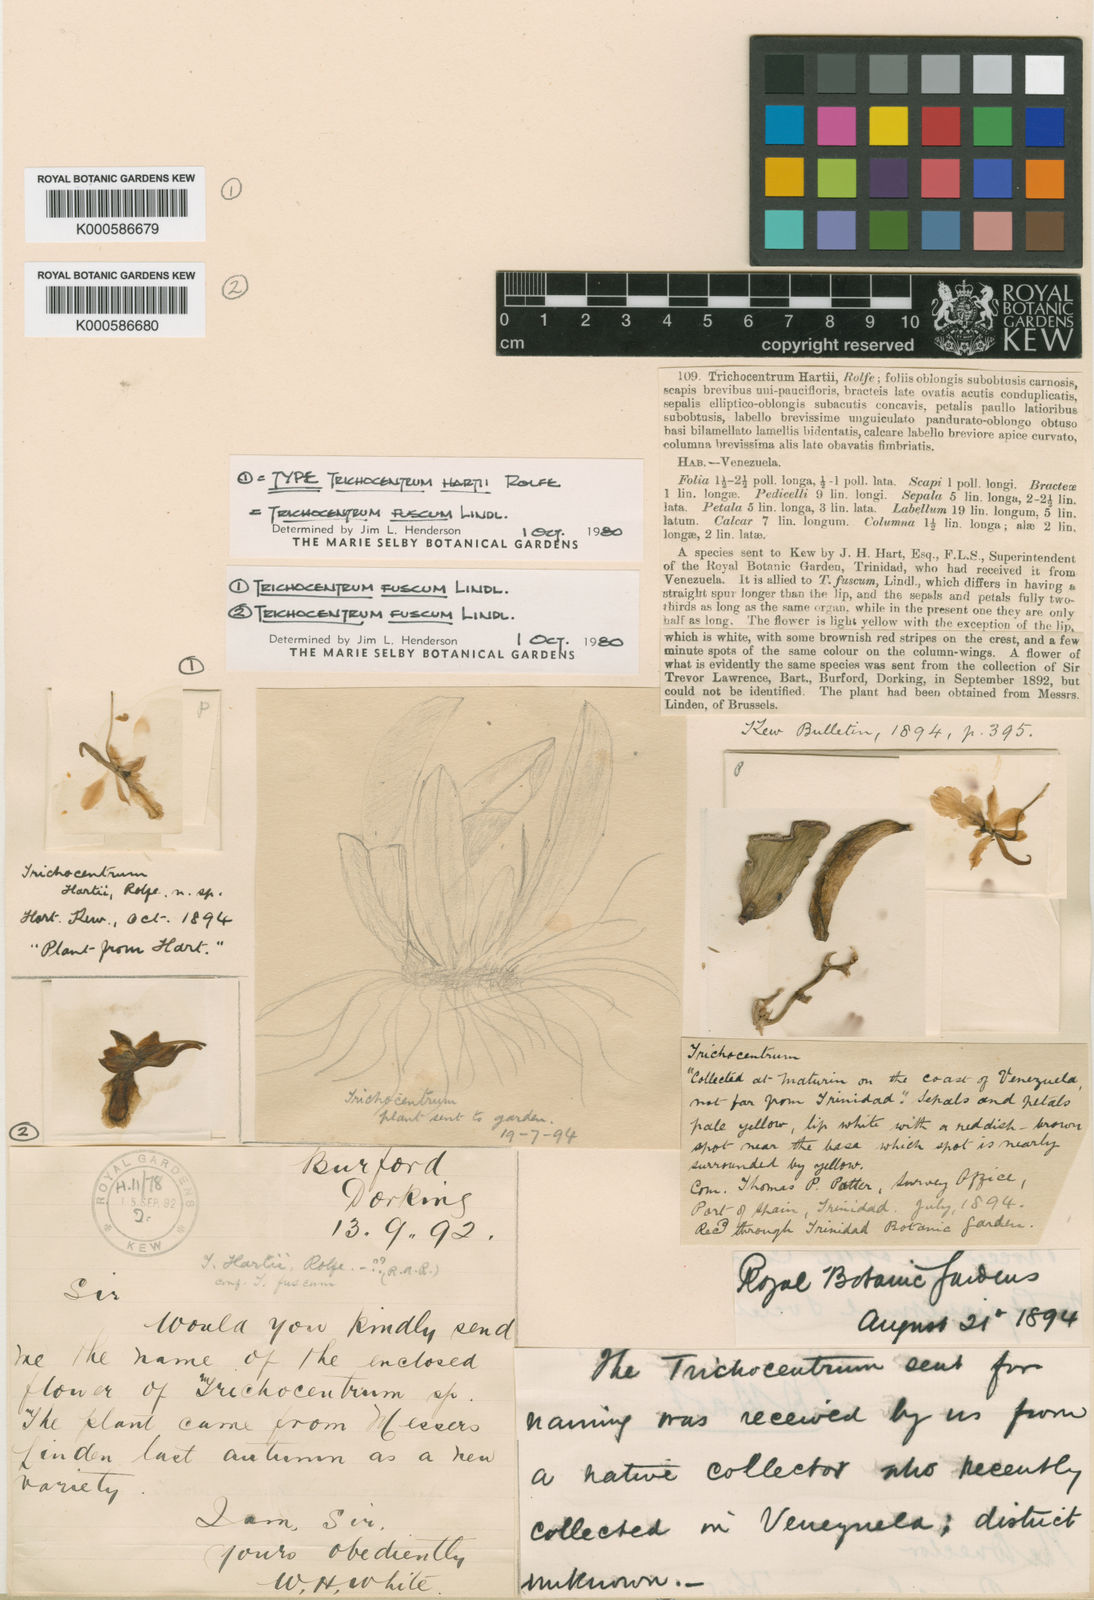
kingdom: Plantae
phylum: Tracheophyta
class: Liliopsida
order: Asparagales
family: Orchidaceae
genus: Trichocentrum
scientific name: Trichocentrum fuscum
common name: Mule-ear orchid
